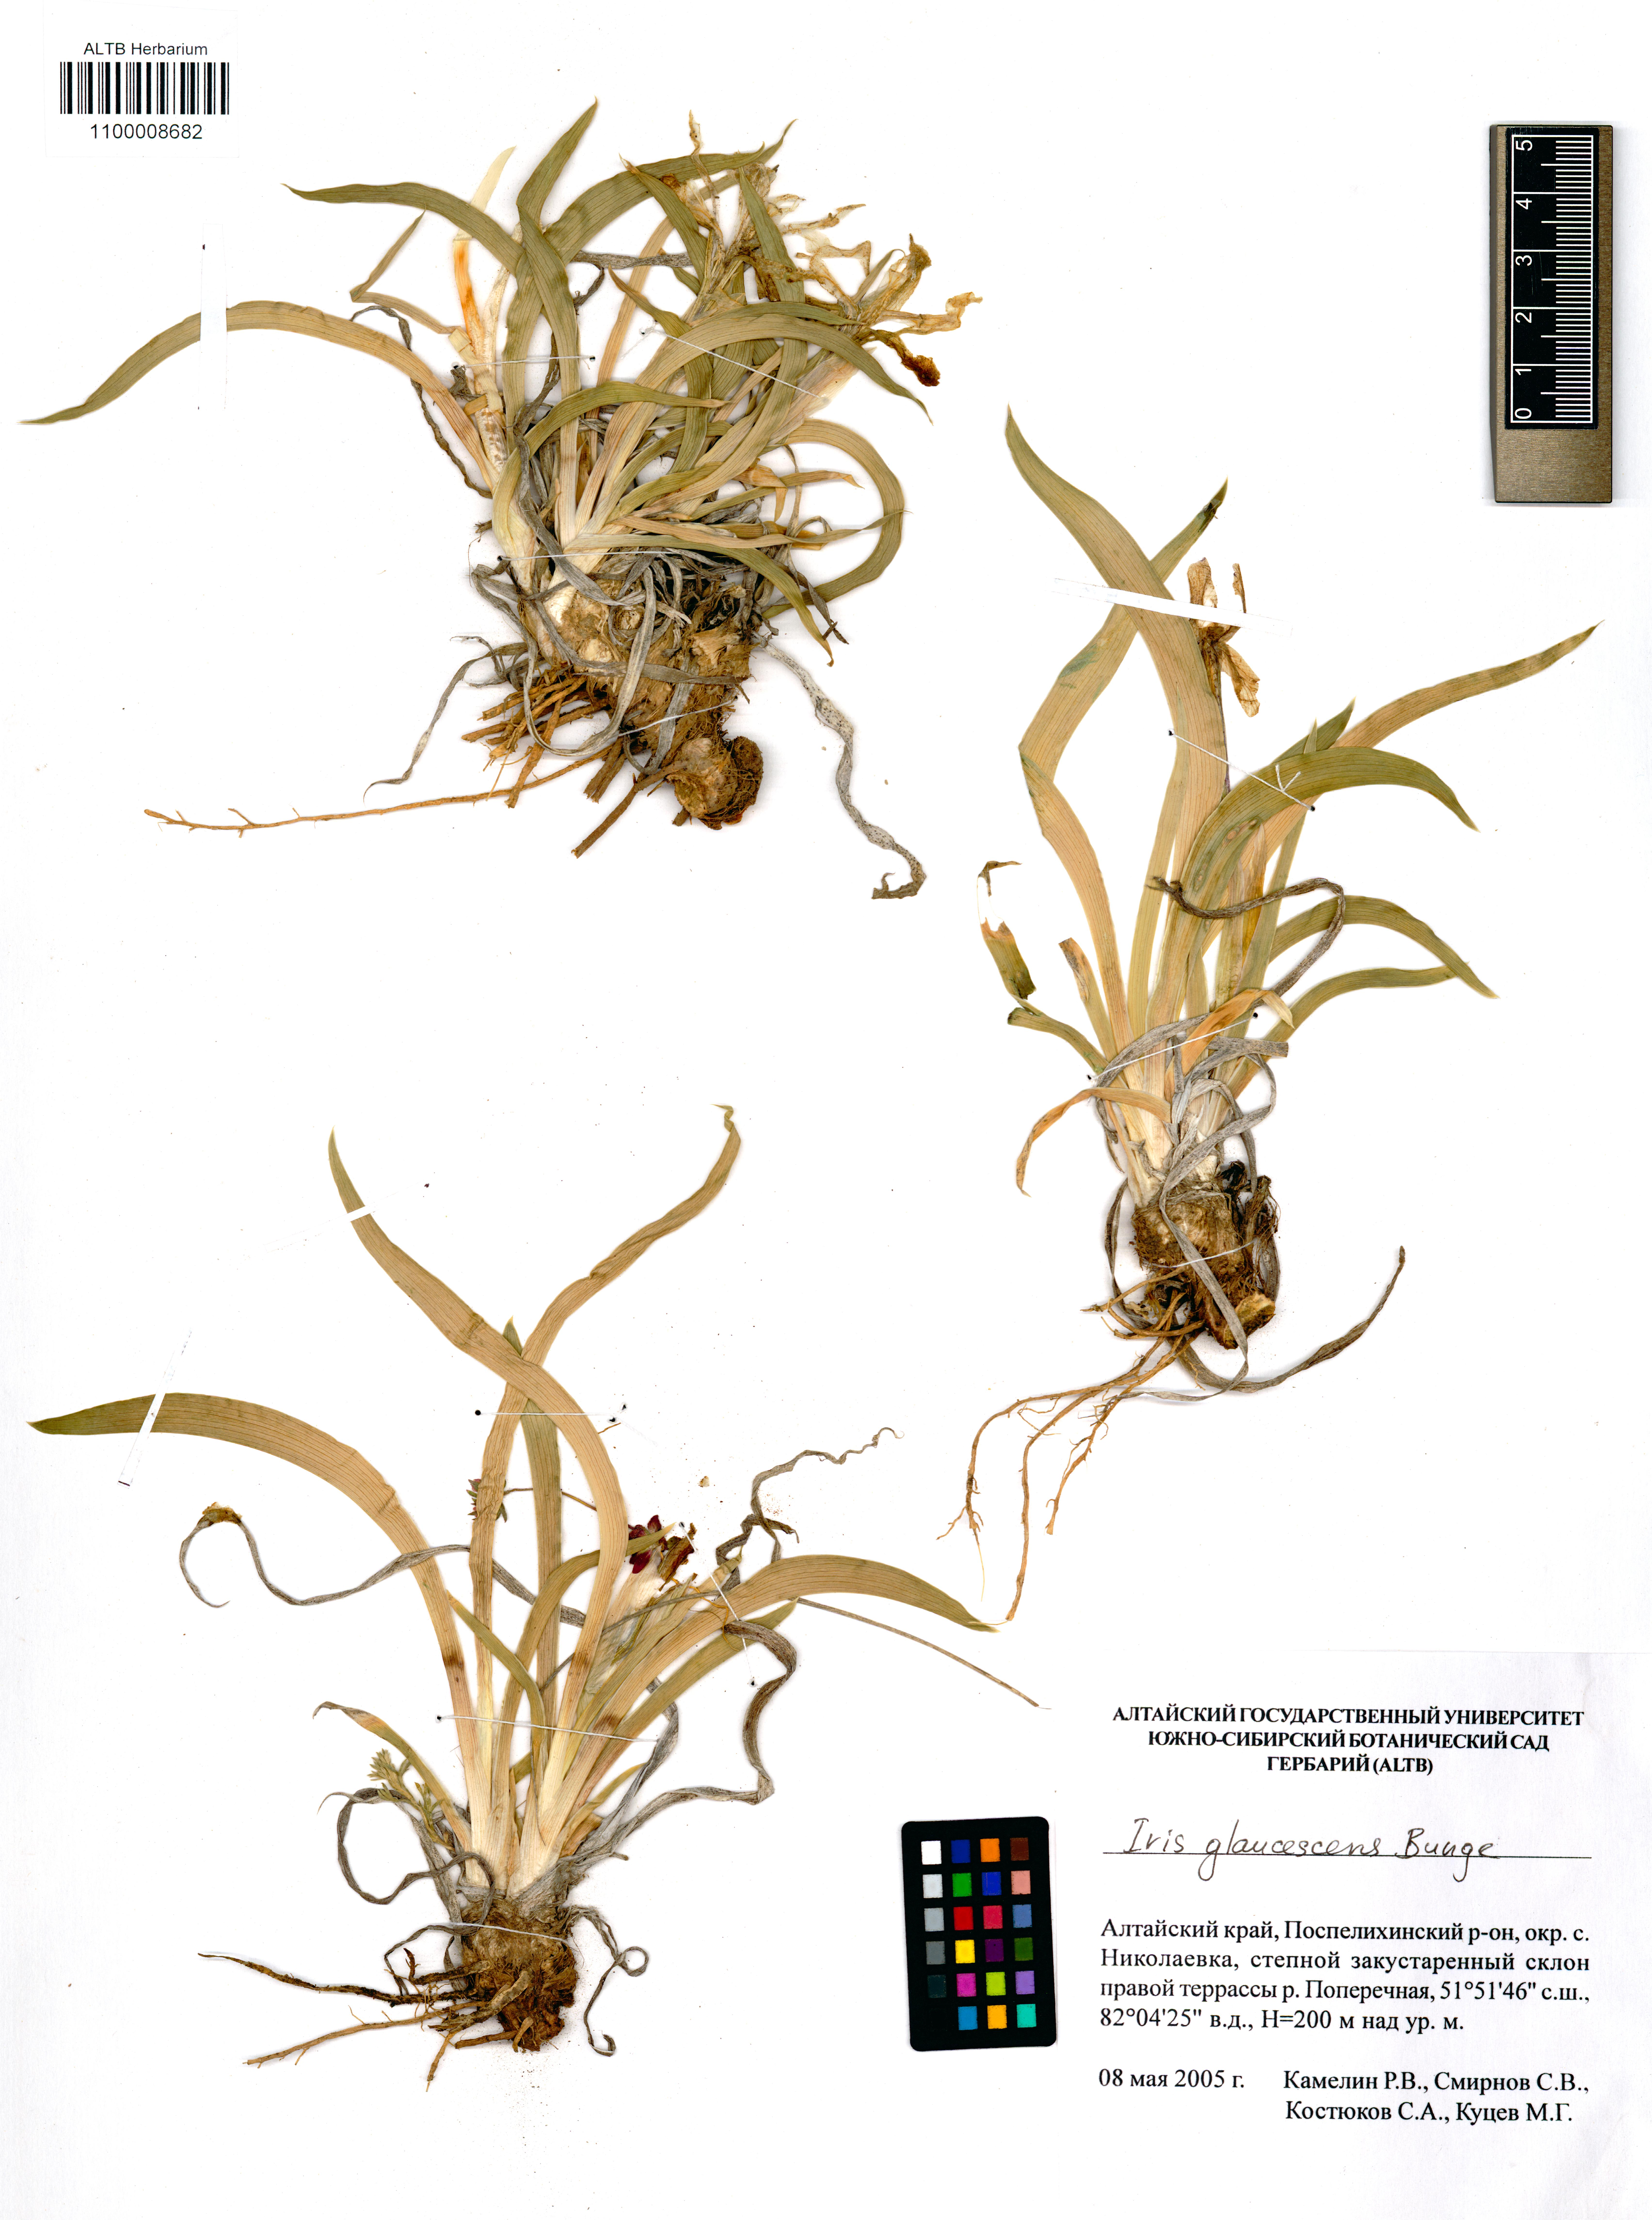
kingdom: Plantae
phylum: Tracheophyta
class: Liliopsida
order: Asparagales
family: Iridaceae
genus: Iris
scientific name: Iris glaucescens
